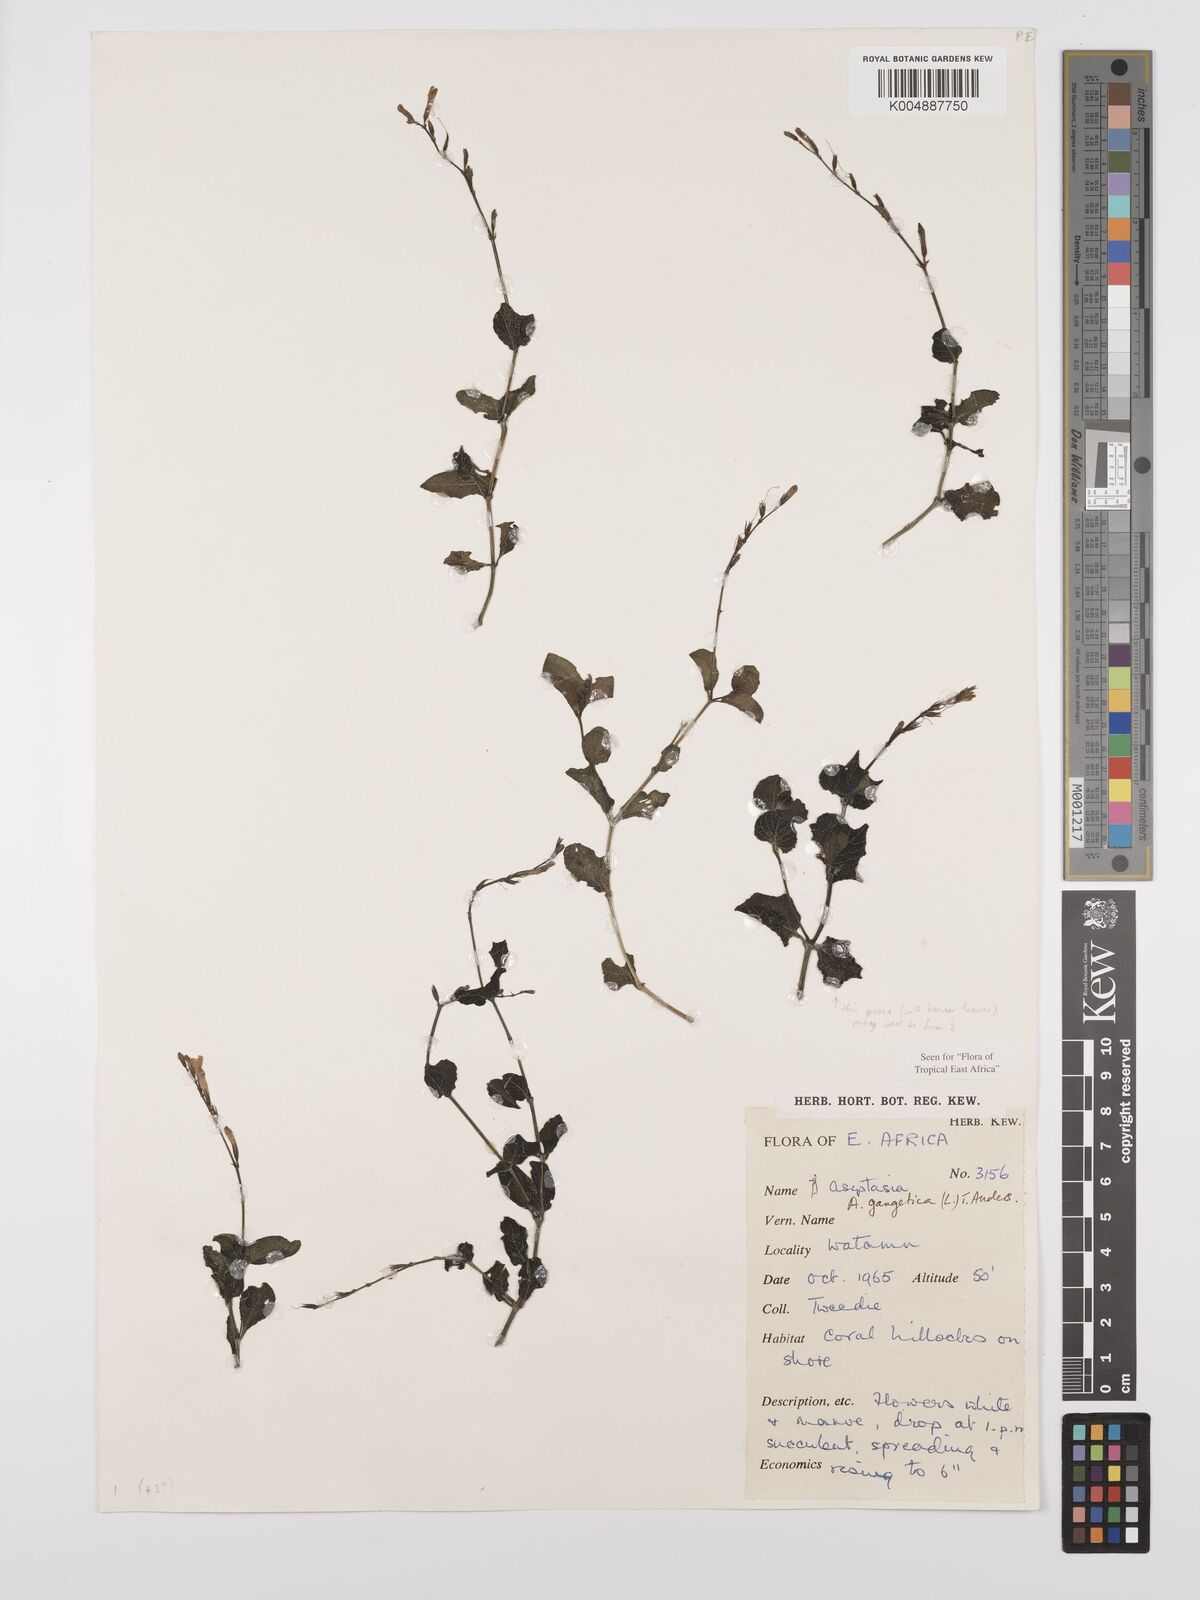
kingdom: Plantae
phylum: Tracheophyta
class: Magnoliopsida
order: Lamiales
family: Acanthaceae
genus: Asystasia
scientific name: Asystasia gangetica
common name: Chinese violet
